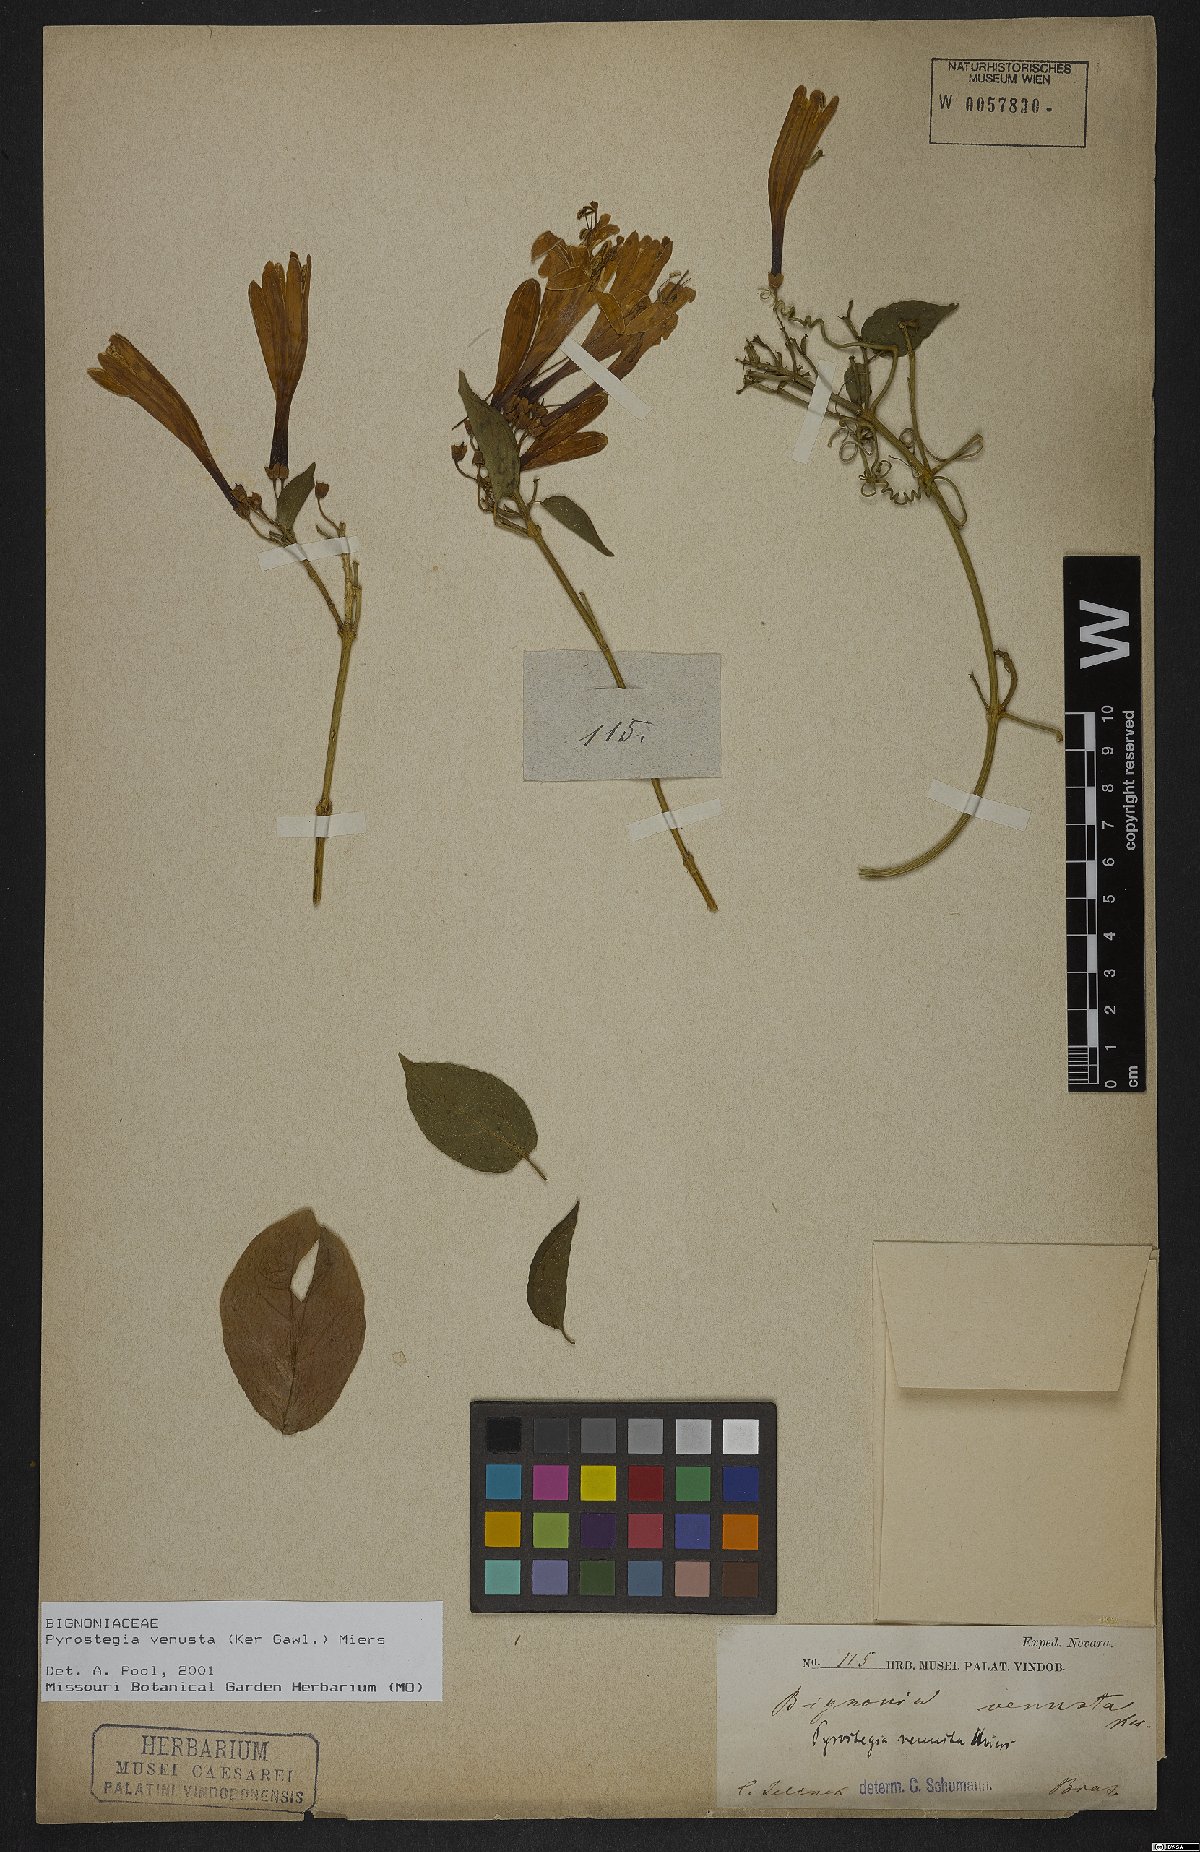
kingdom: Plantae
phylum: Tracheophyta
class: Magnoliopsida
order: Lamiales
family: Bignoniaceae
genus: Pyrostegia
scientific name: Pyrostegia venusta
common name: Flamevine
